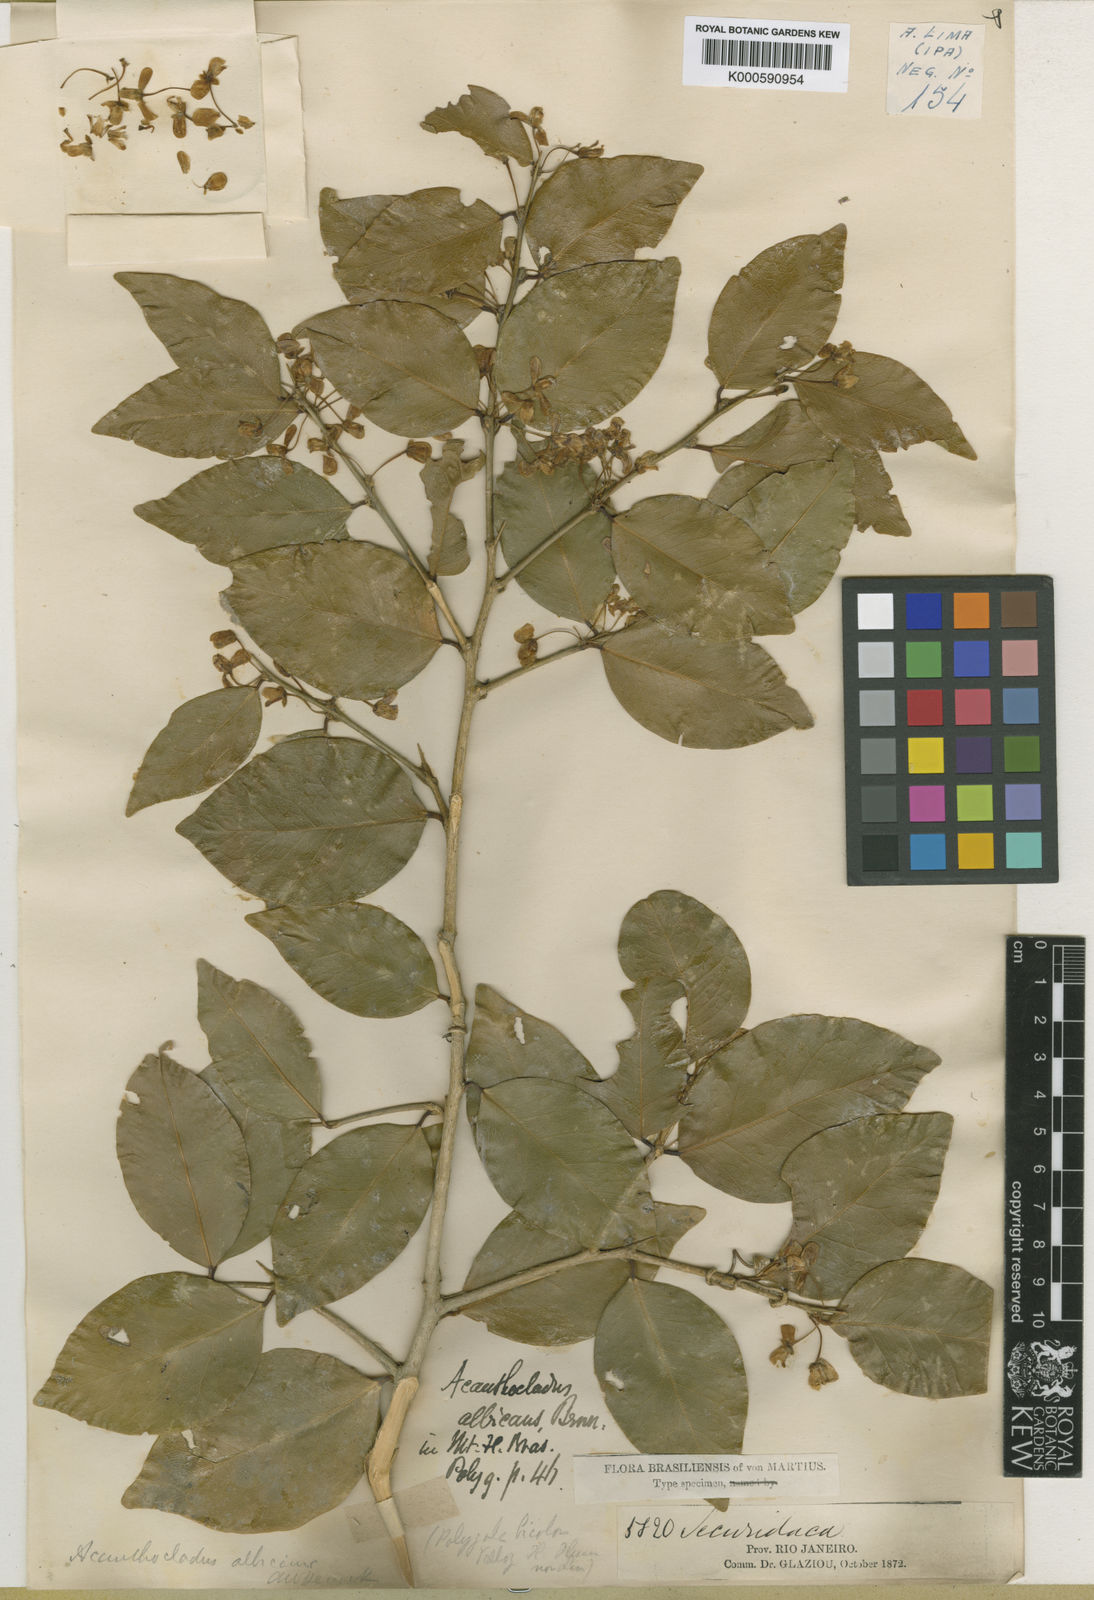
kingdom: Plantae
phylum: Tracheophyta
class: Magnoliopsida
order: Fabales
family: Polygalaceae
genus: Polygala
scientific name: Polygala
